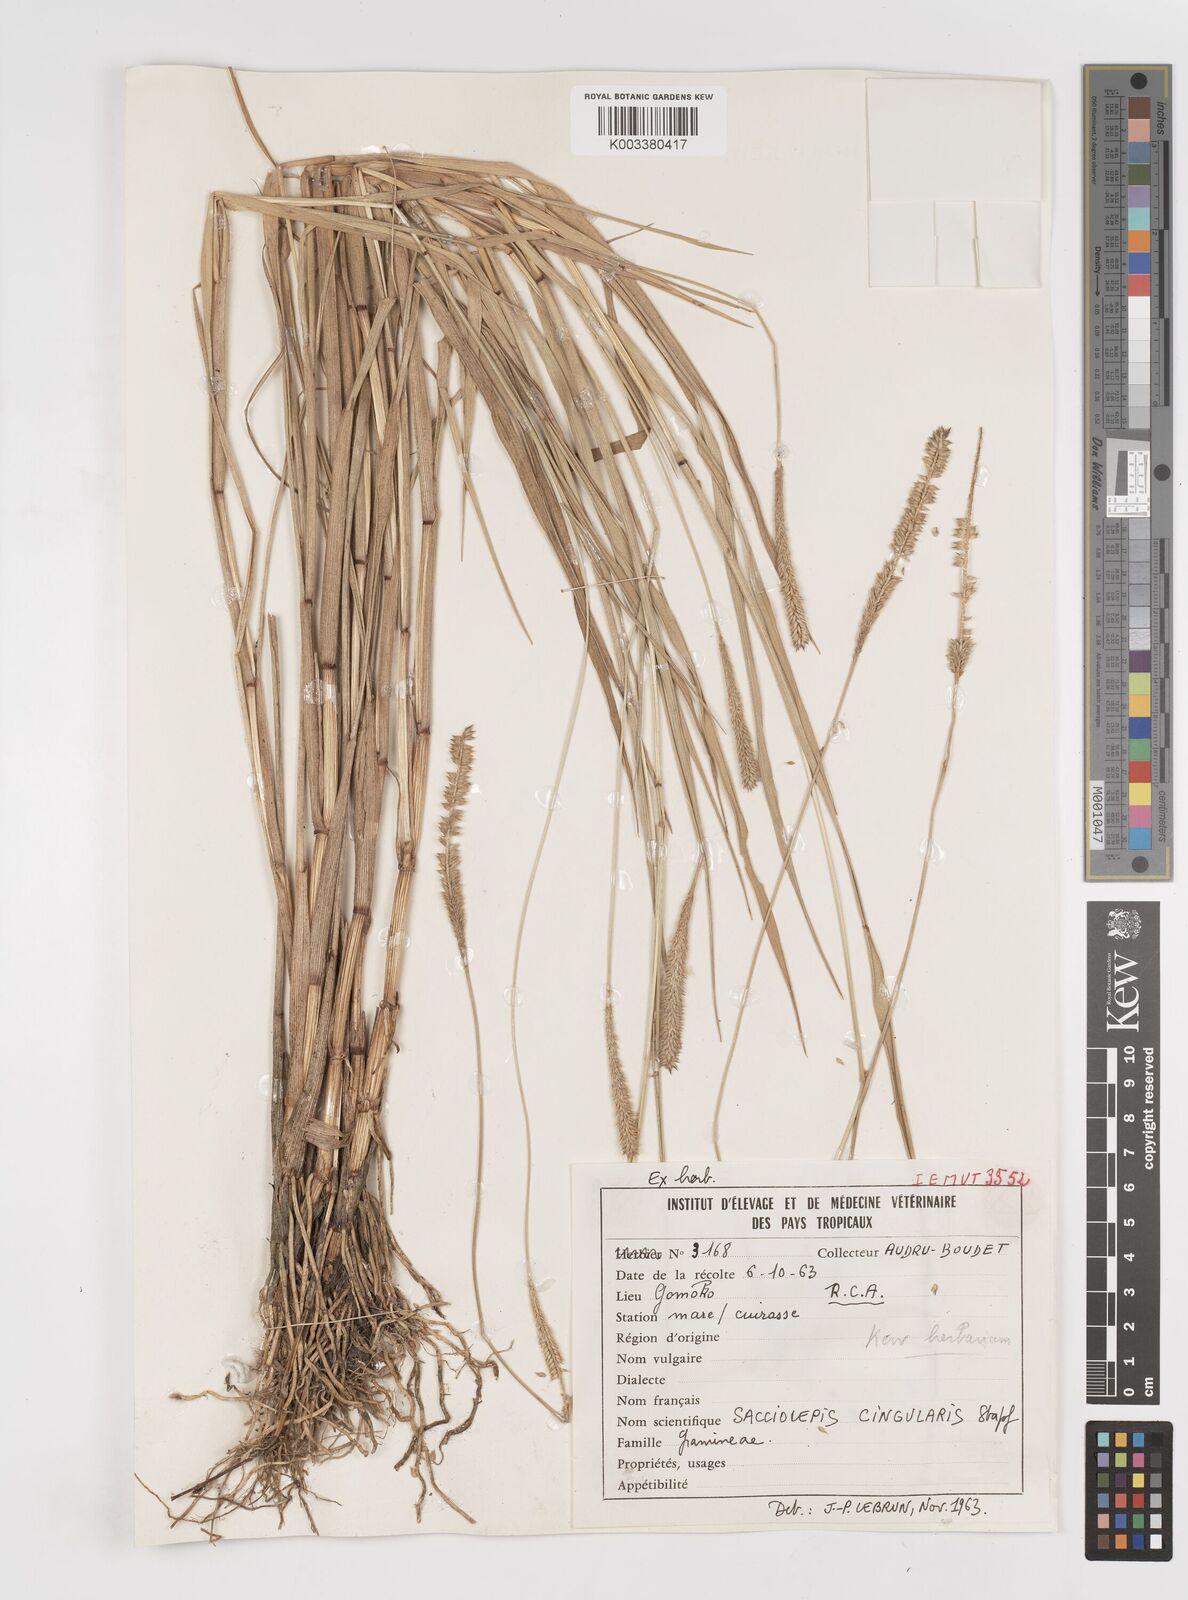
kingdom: Plantae
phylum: Tracheophyta
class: Liliopsida
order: Poales
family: Poaceae
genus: Sacciolepis
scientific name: Sacciolepis cingularis
